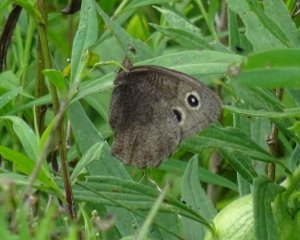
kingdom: Animalia
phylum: Arthropoda
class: Insecta
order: Lepidoptera
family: Nymphalidae
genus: Cercyonis
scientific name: Cercyonis pegala
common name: Common Wood-Nymph
